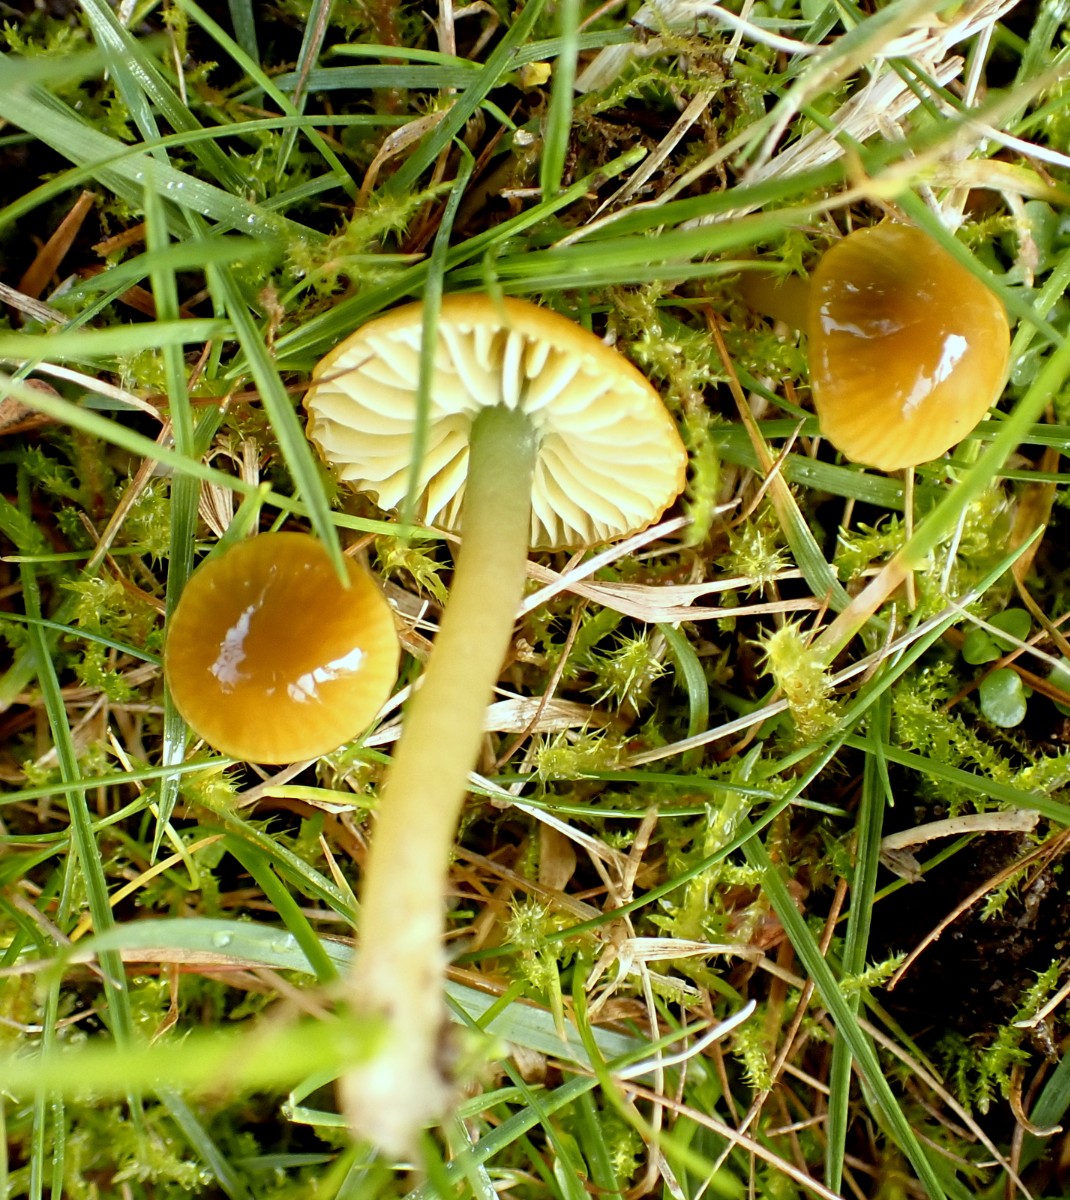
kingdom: Fungi
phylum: Basidiomycota
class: Agaricomycetes
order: Agaricales
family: Hygrophoraceae
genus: Gliophorus
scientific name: Gliophorus psittacinus
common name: papegøje-vokshat
